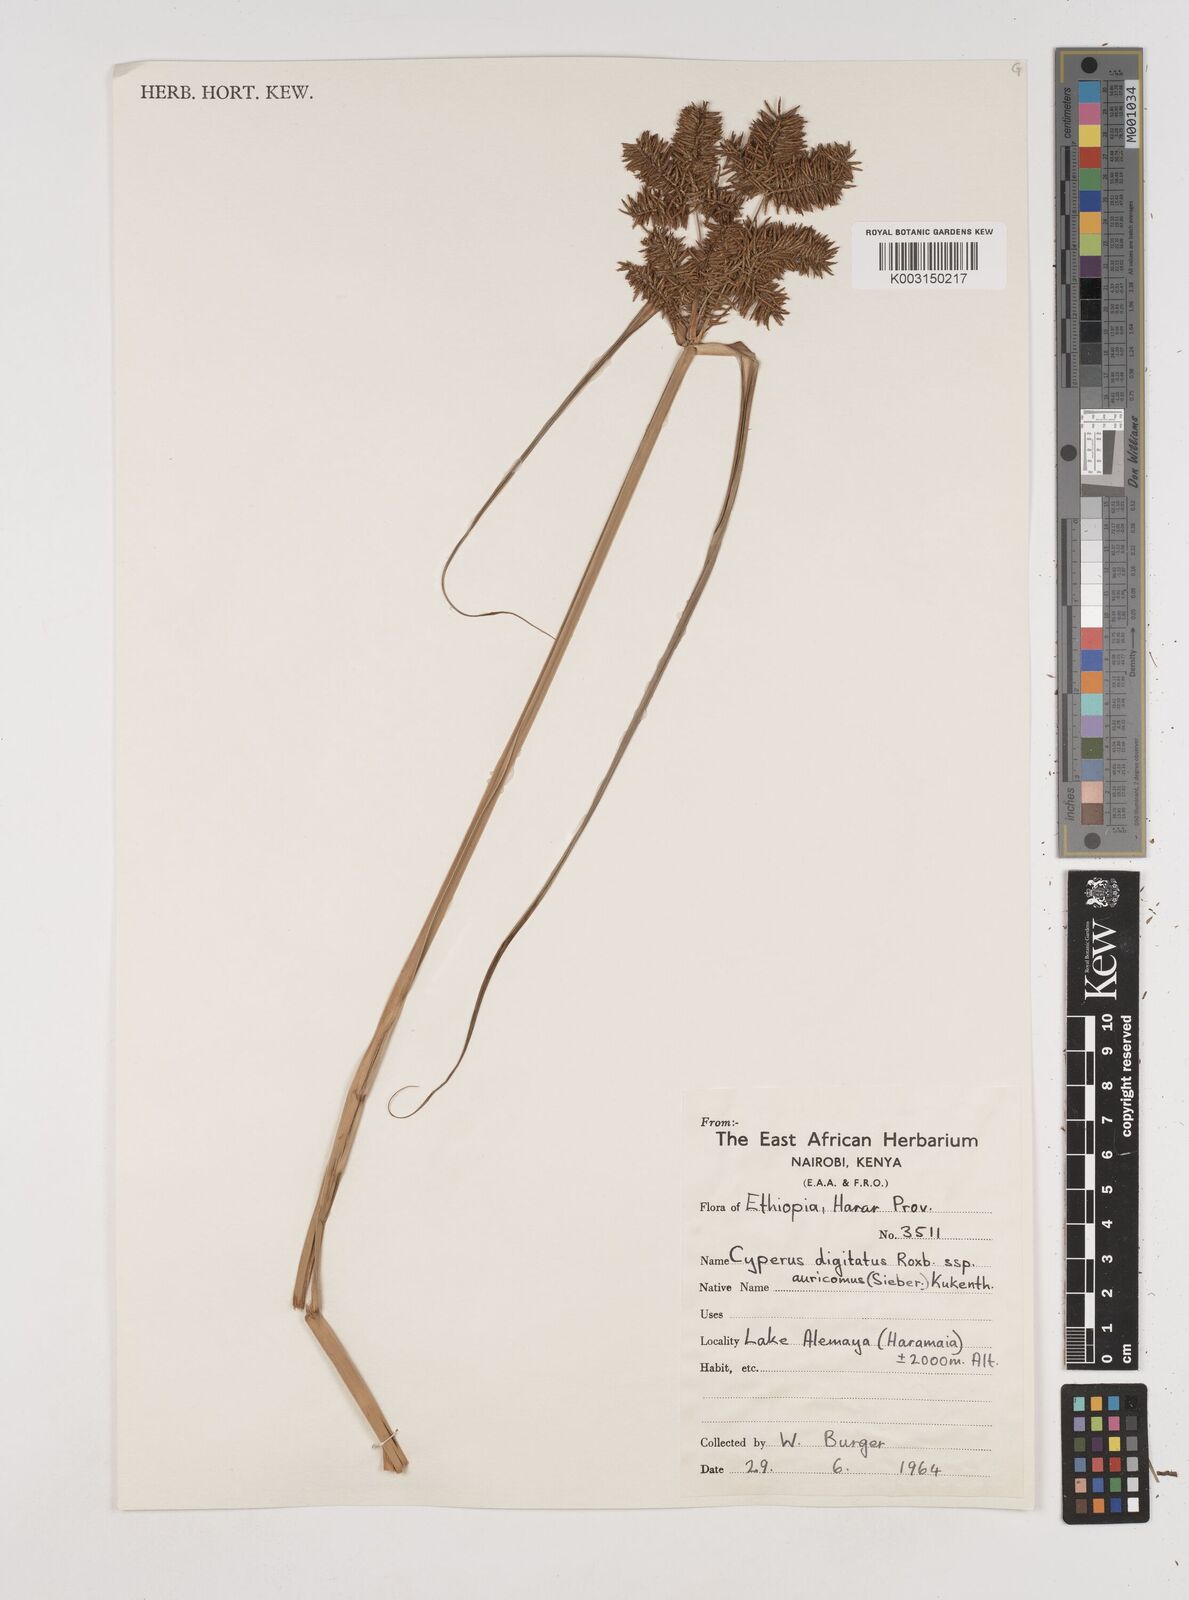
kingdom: Plantae
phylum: Tracheophyta
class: Liliopsida
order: Poales
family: Cyperaceae
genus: Cyperus
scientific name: Cyperus digitatus
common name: Finger flatsedge
